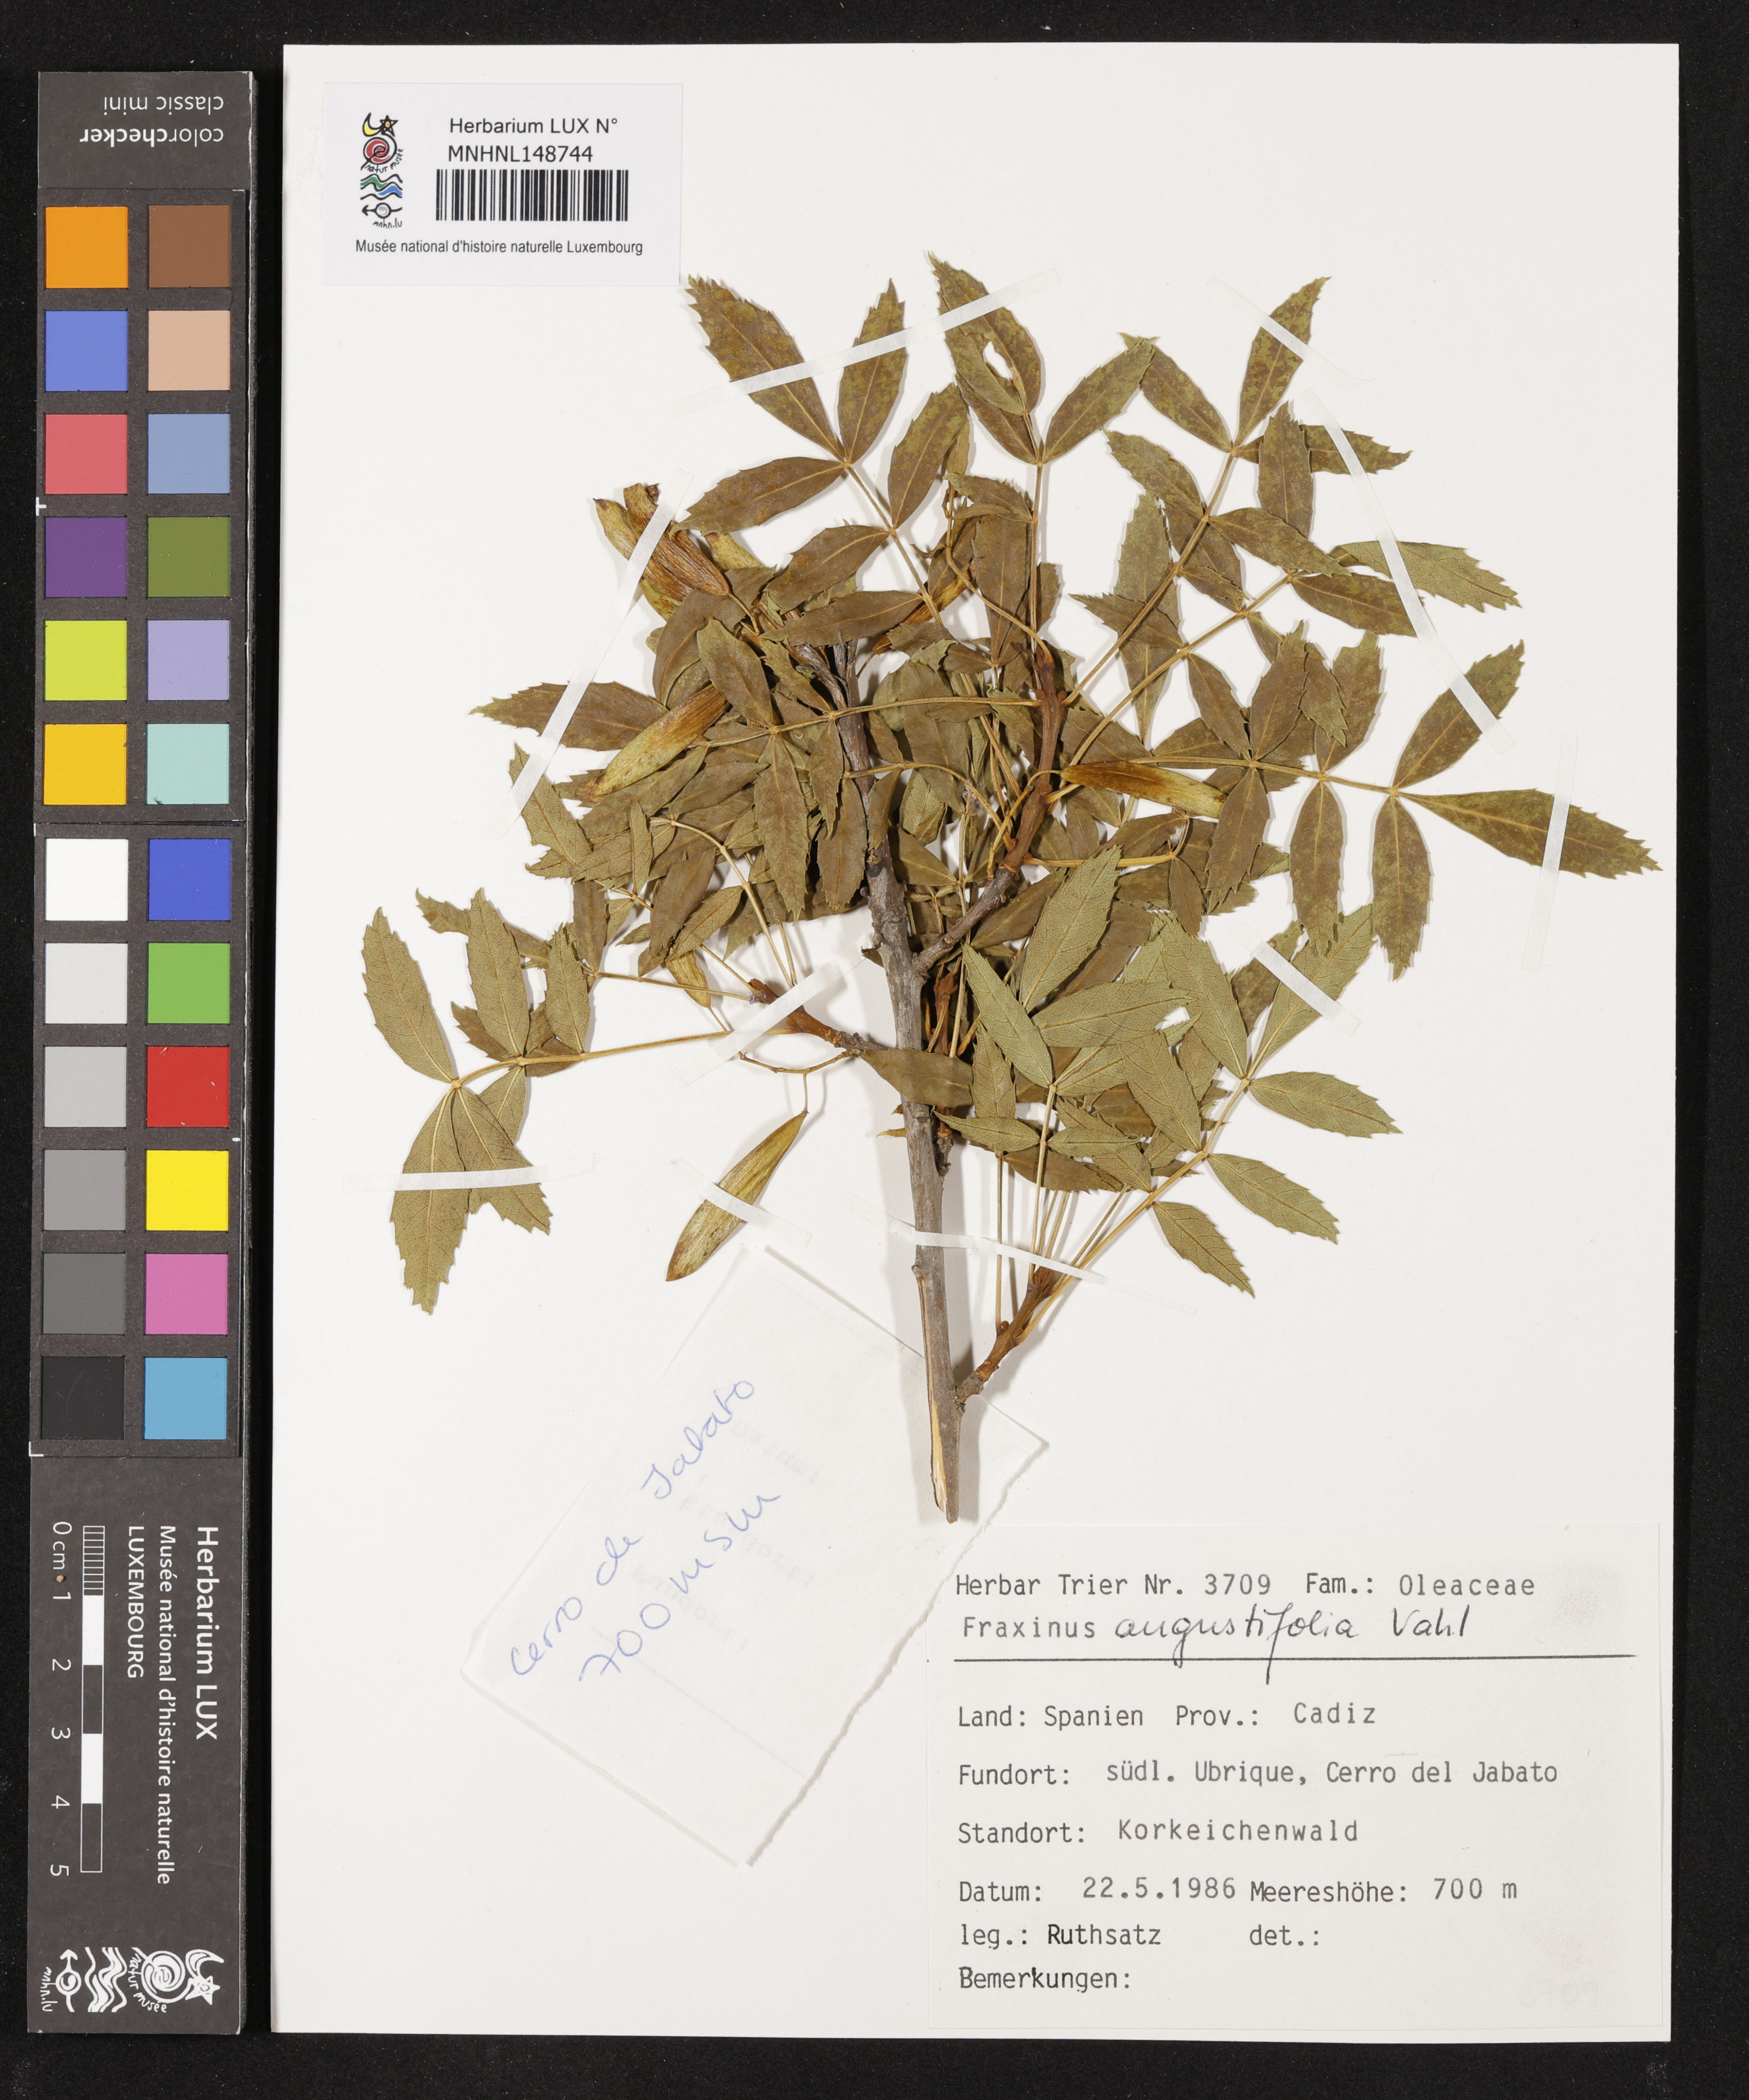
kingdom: Plantae
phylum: Tracheophyta
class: Magnoliopsida
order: Lamiales
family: Oleaceae
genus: Fraxinus
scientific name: Fraxinus angustifolia
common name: Narrow-leafed ash
